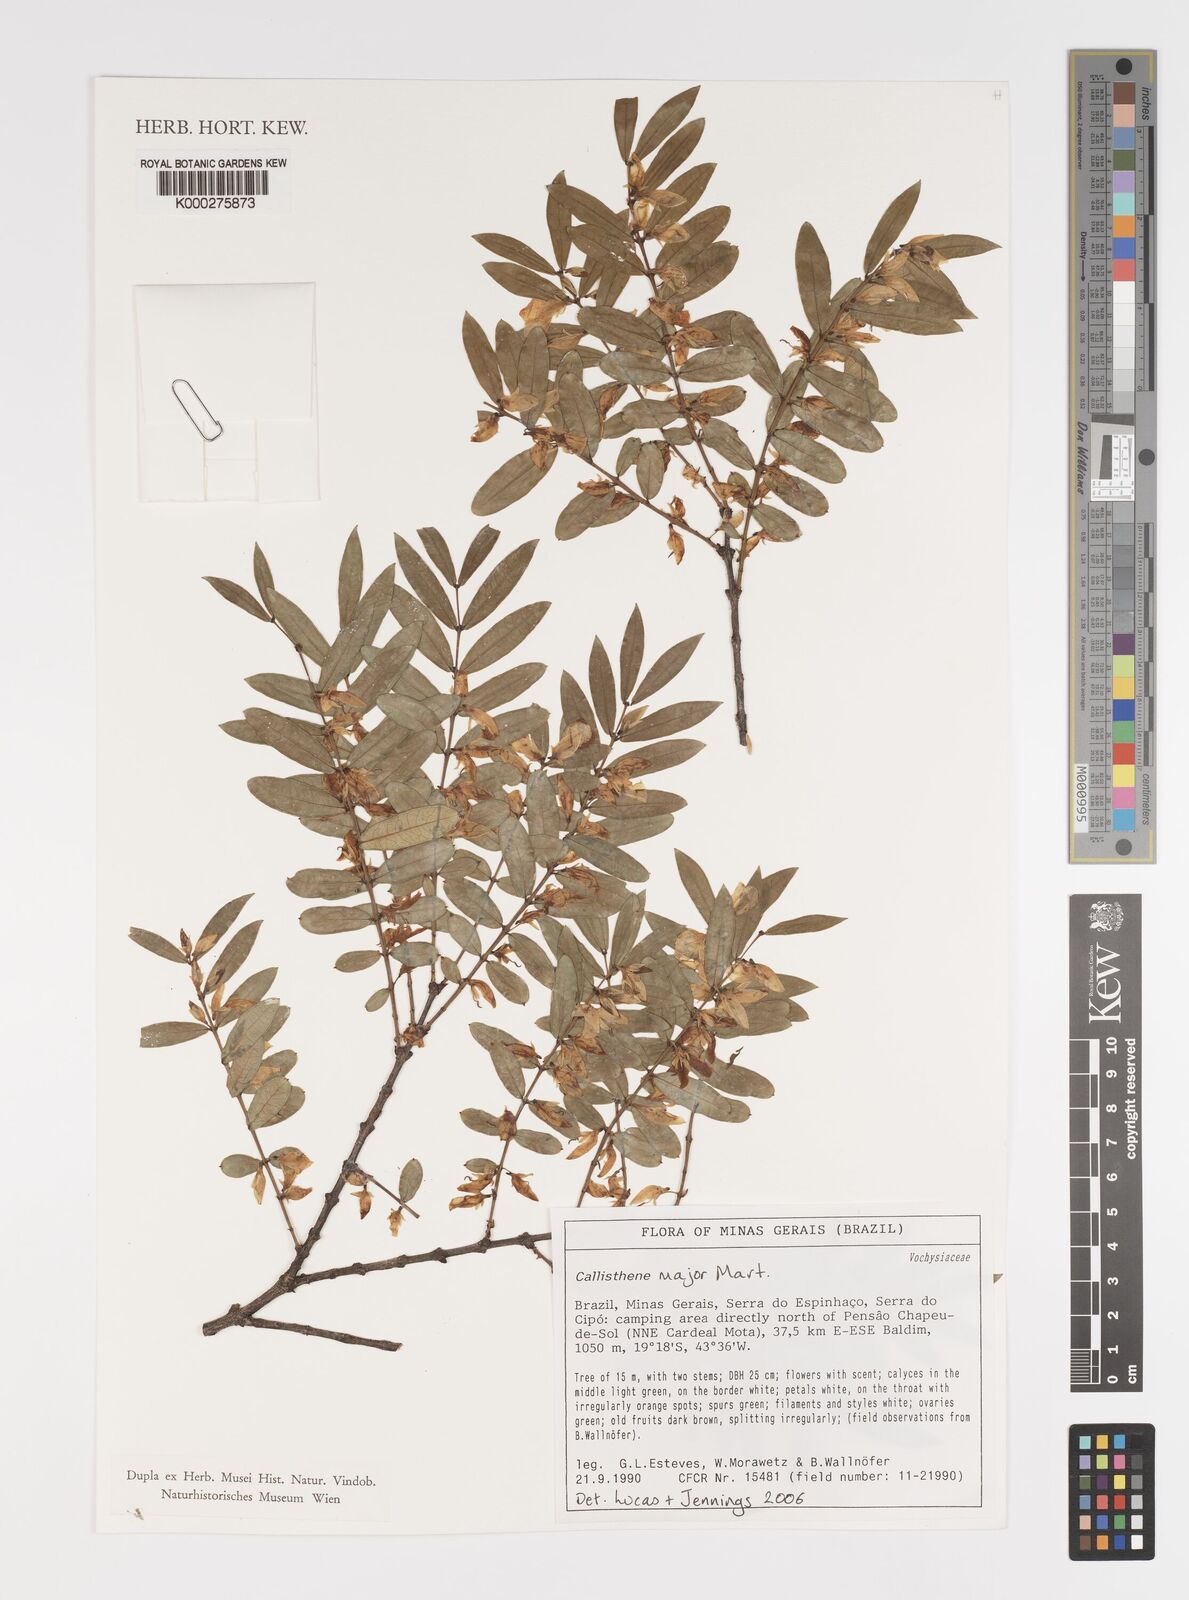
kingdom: Plantae
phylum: Tracheophyta
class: Magnoliopsida
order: Myrtales
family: Vochysiaceae
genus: Callisthene
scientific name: Callisthene major
